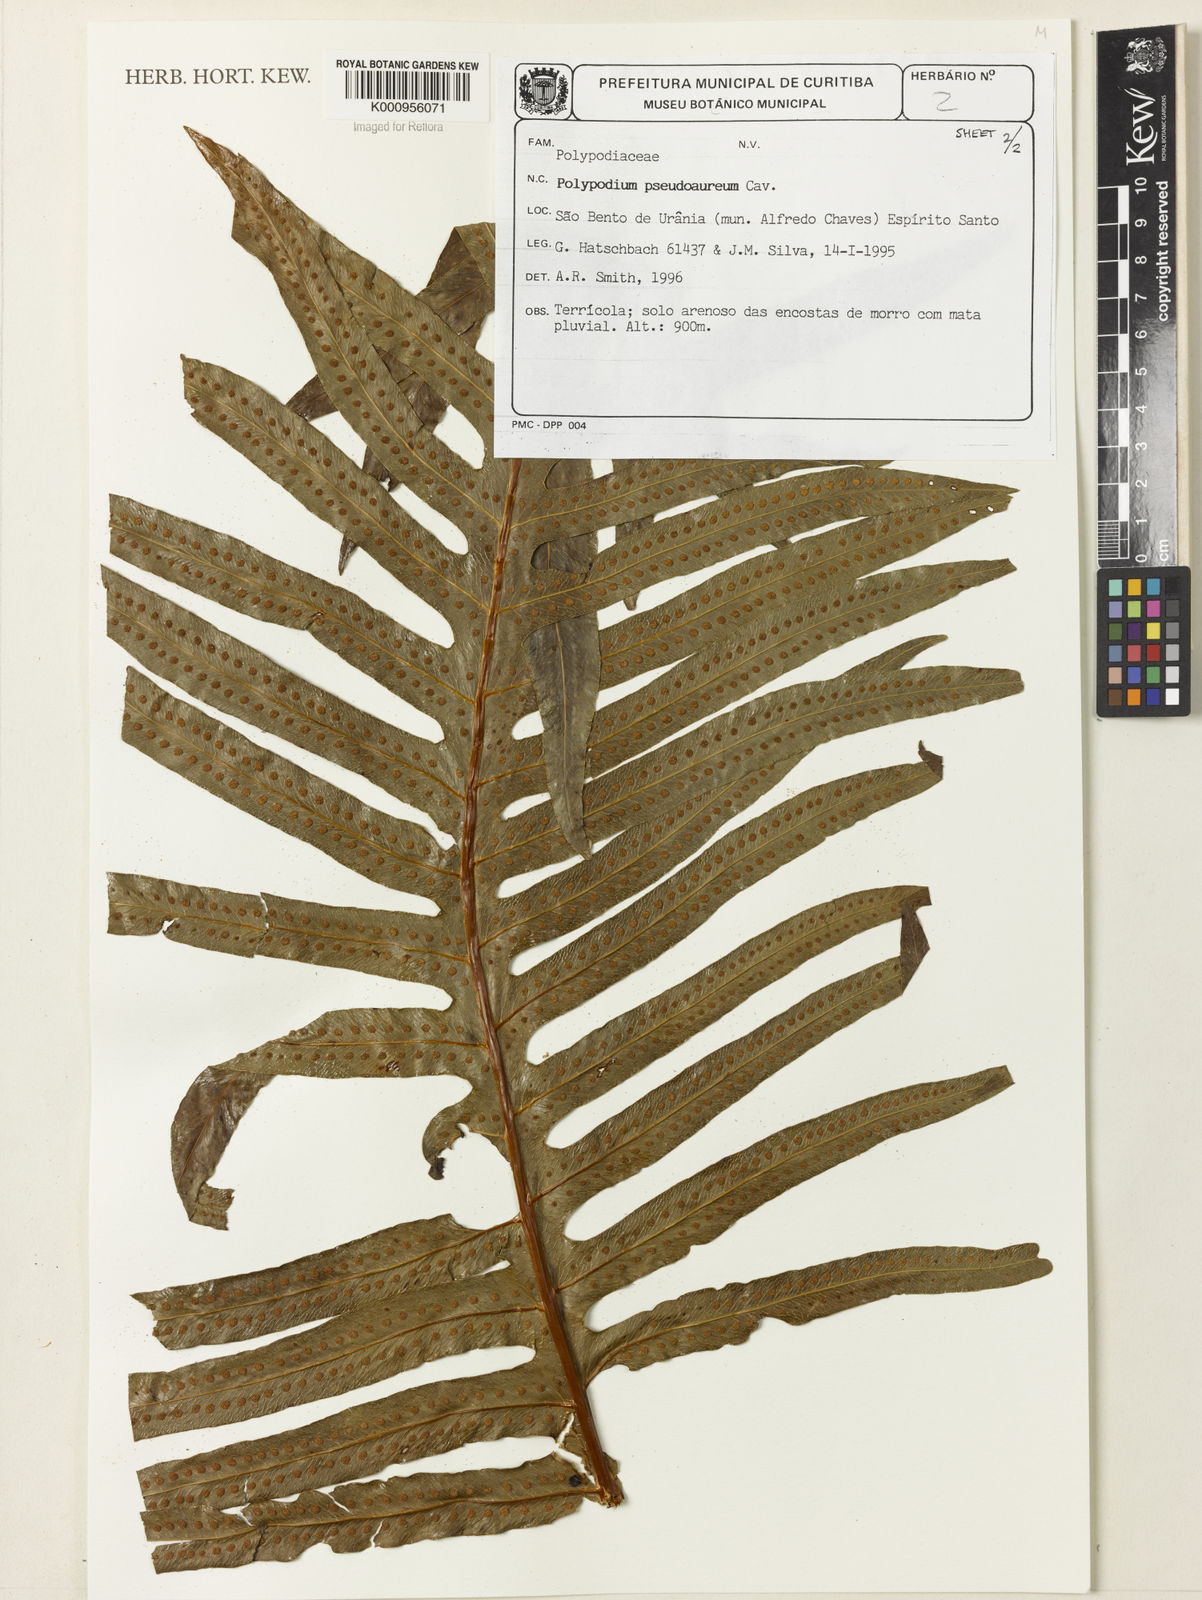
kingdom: Plantae
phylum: Tracheophyta
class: Polypodiopsida
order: Polypodiales
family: Polypodiaceae
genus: Phlebodium
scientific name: Phlebodium aureum
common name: Gold-foot fern
